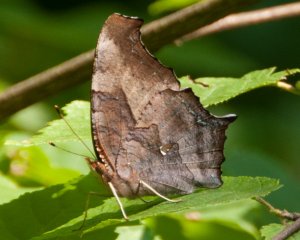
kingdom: Animalia
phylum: Arthropoda
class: Insecta
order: Lepidoptera
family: Nymphalidae
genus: Polygonia
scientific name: Polygonia interrogationis
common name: Question Mark
